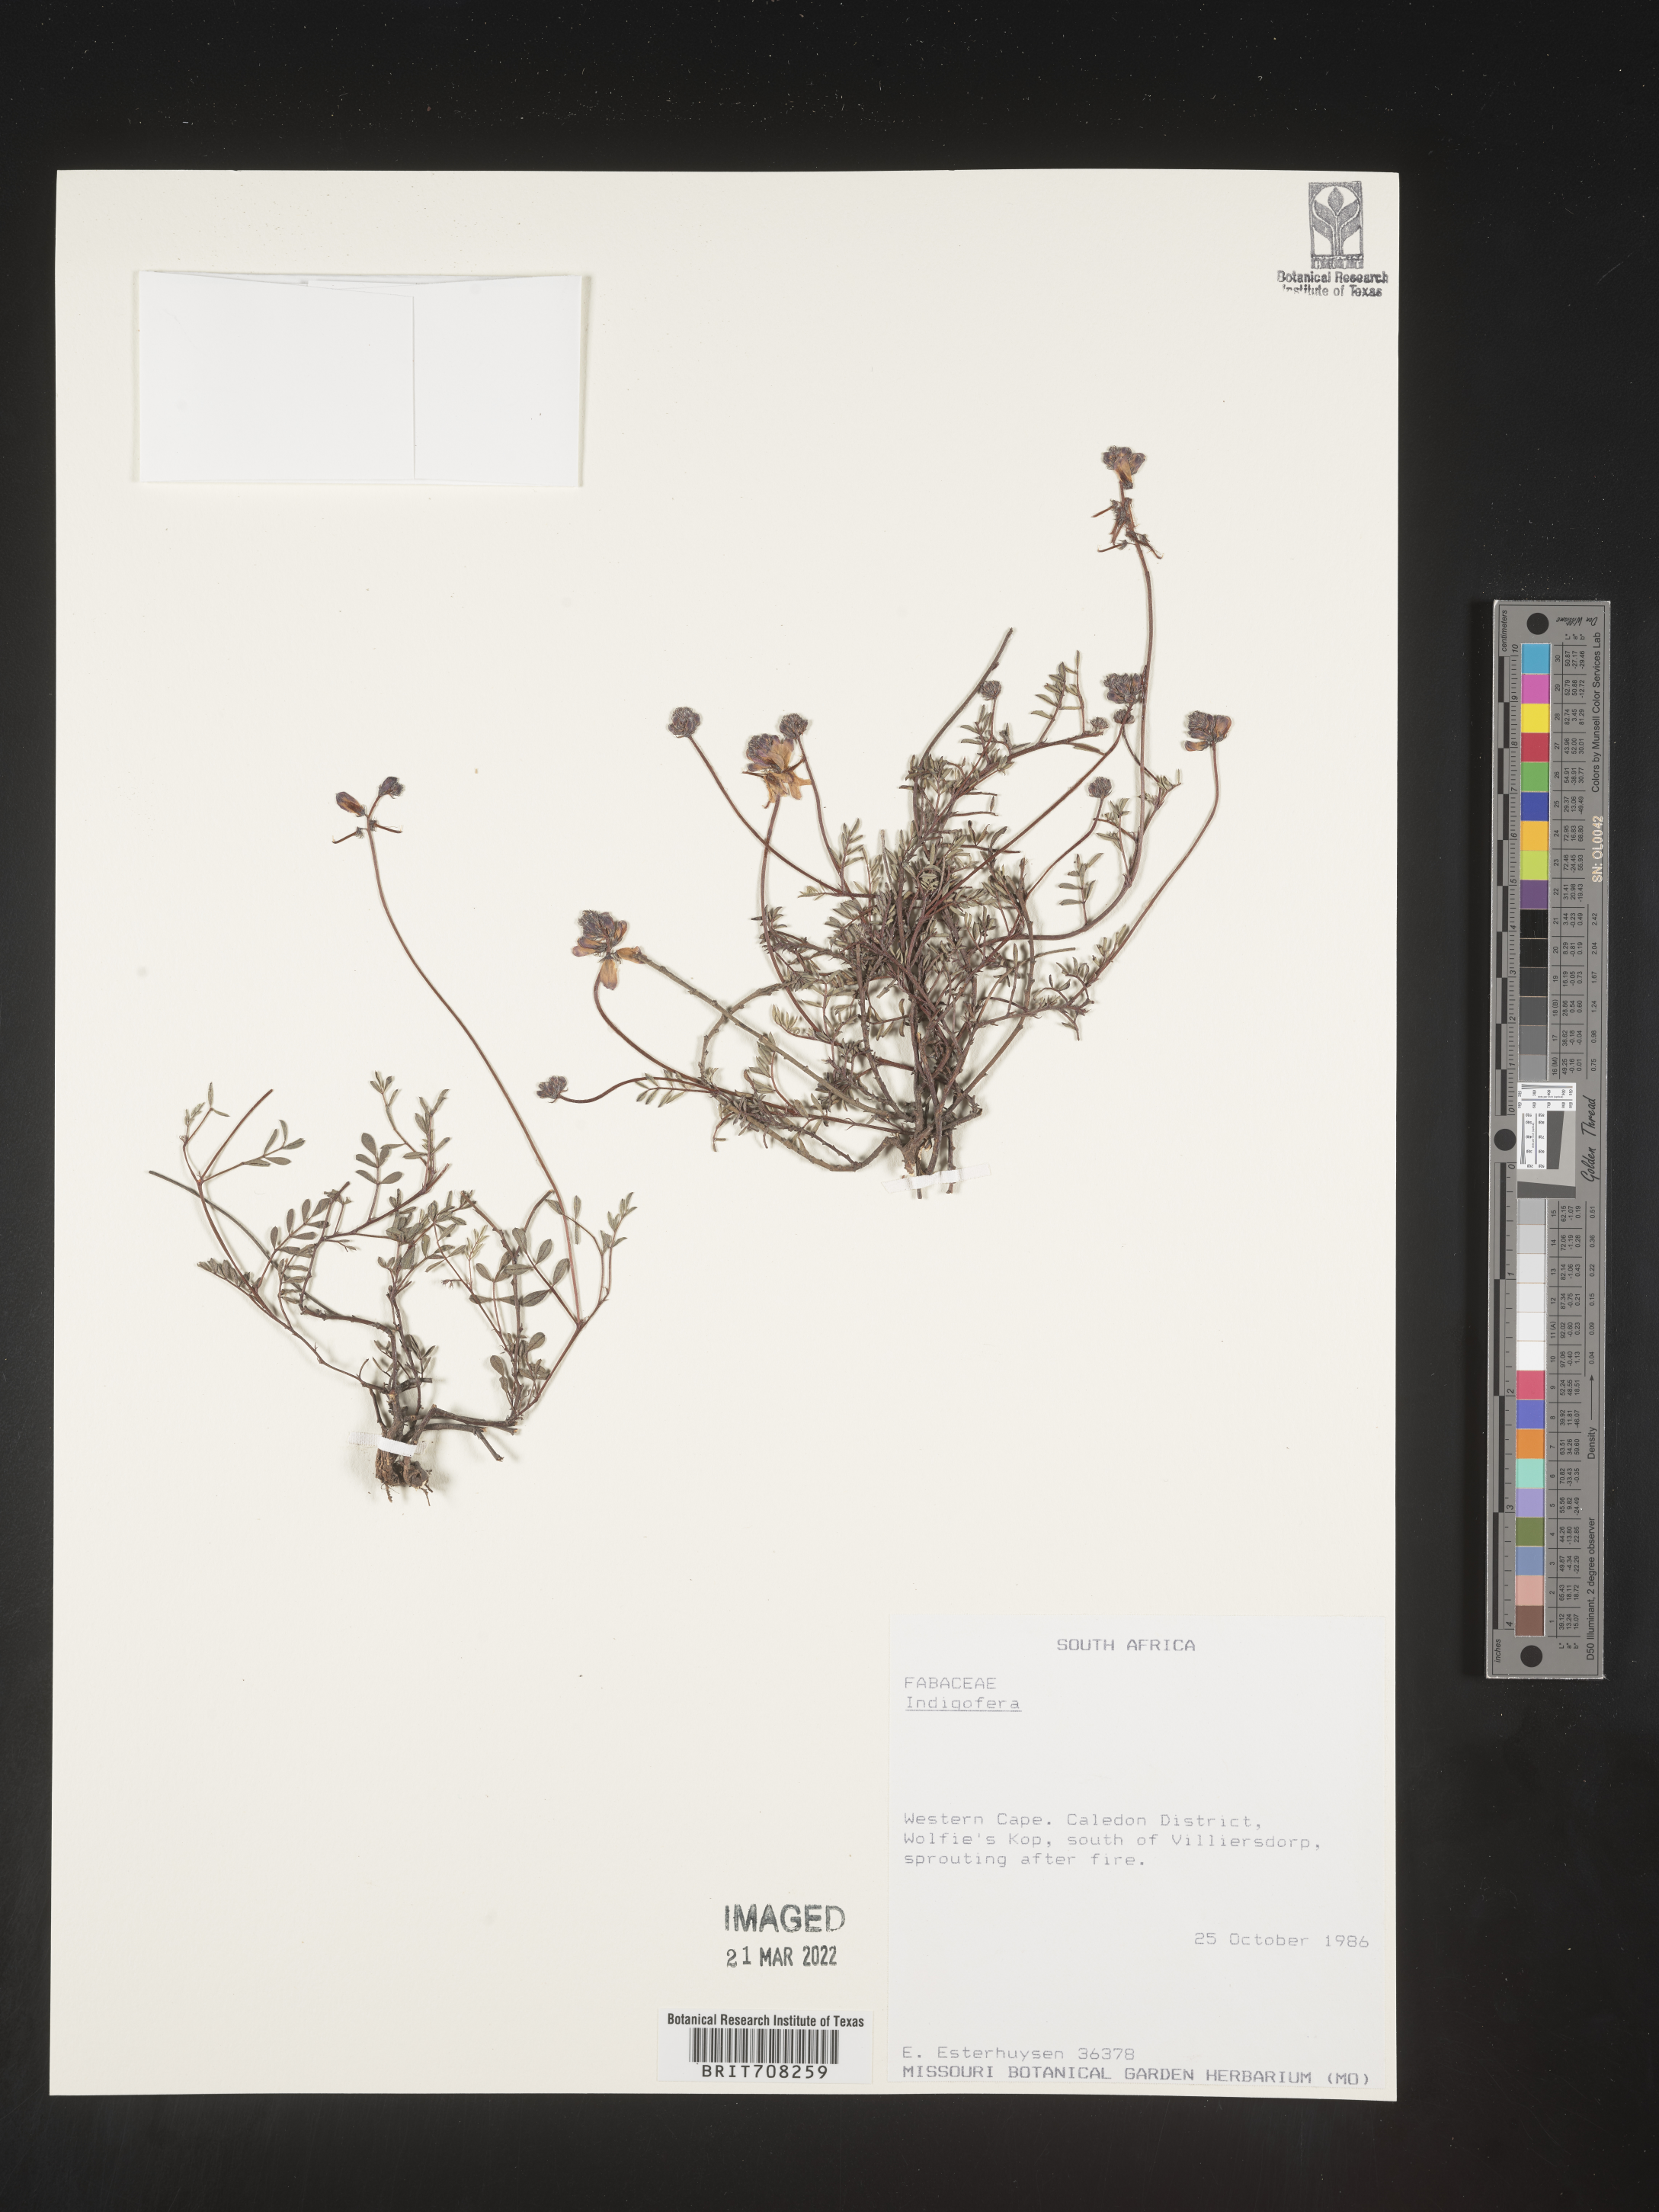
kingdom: Plantae
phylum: Tracheophyta
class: Magnoliopsida
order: Fabales
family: Fabaceae
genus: Indigofera
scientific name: Indigofera
